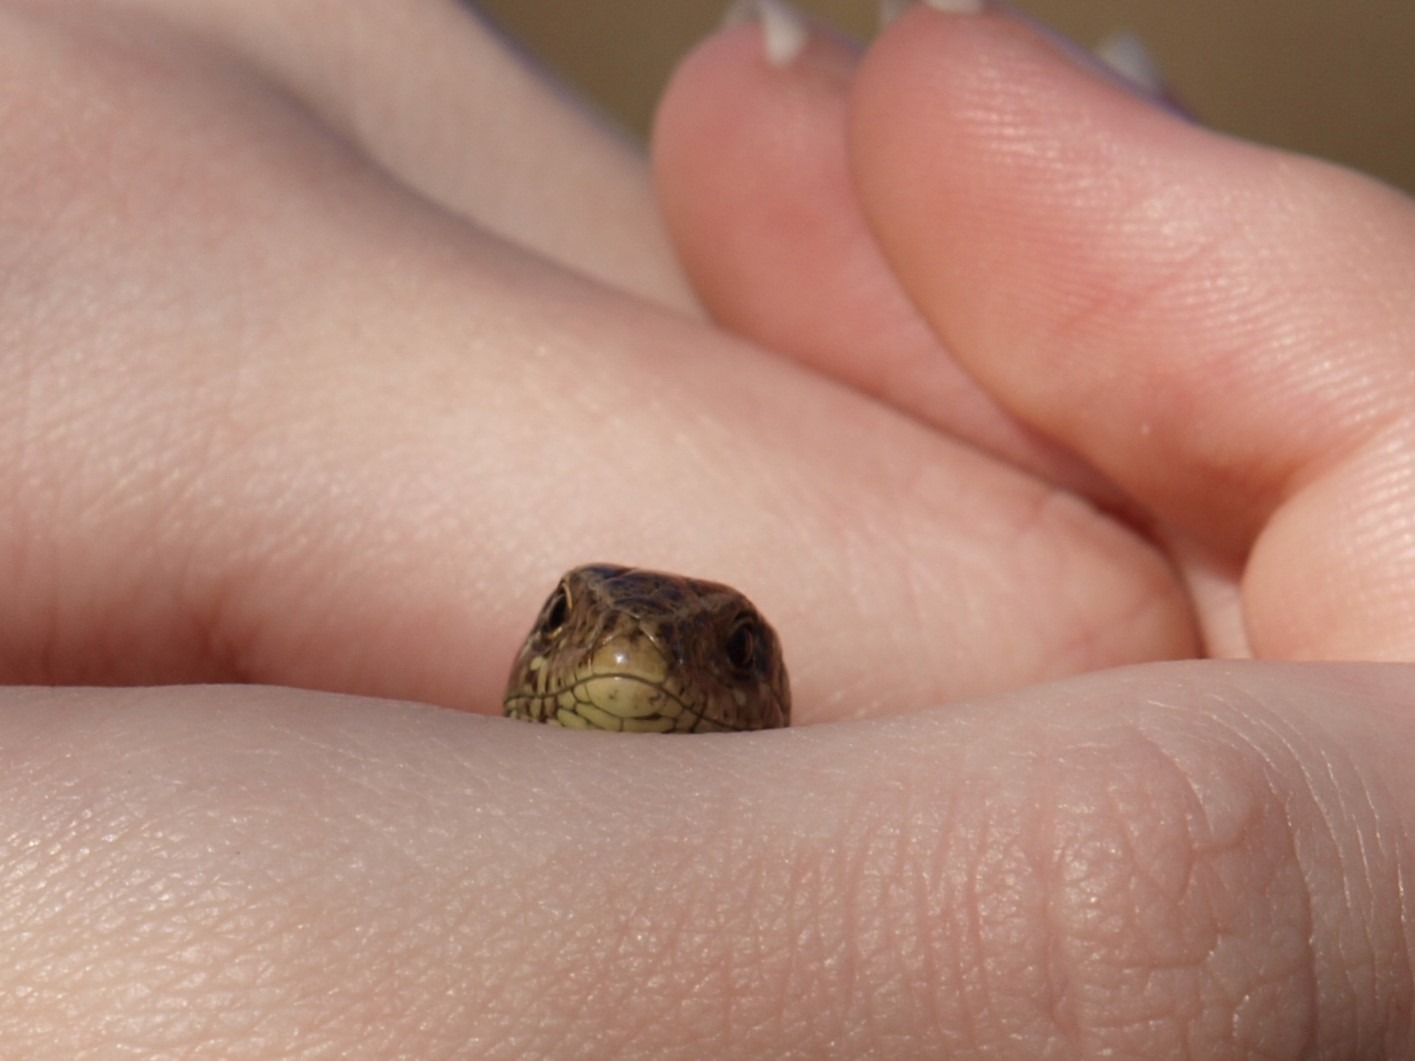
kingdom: Animalia
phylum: Chordata
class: Squamata
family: Lacertidae
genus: Lacerta
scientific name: Lacerta agilis
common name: Markfirben
